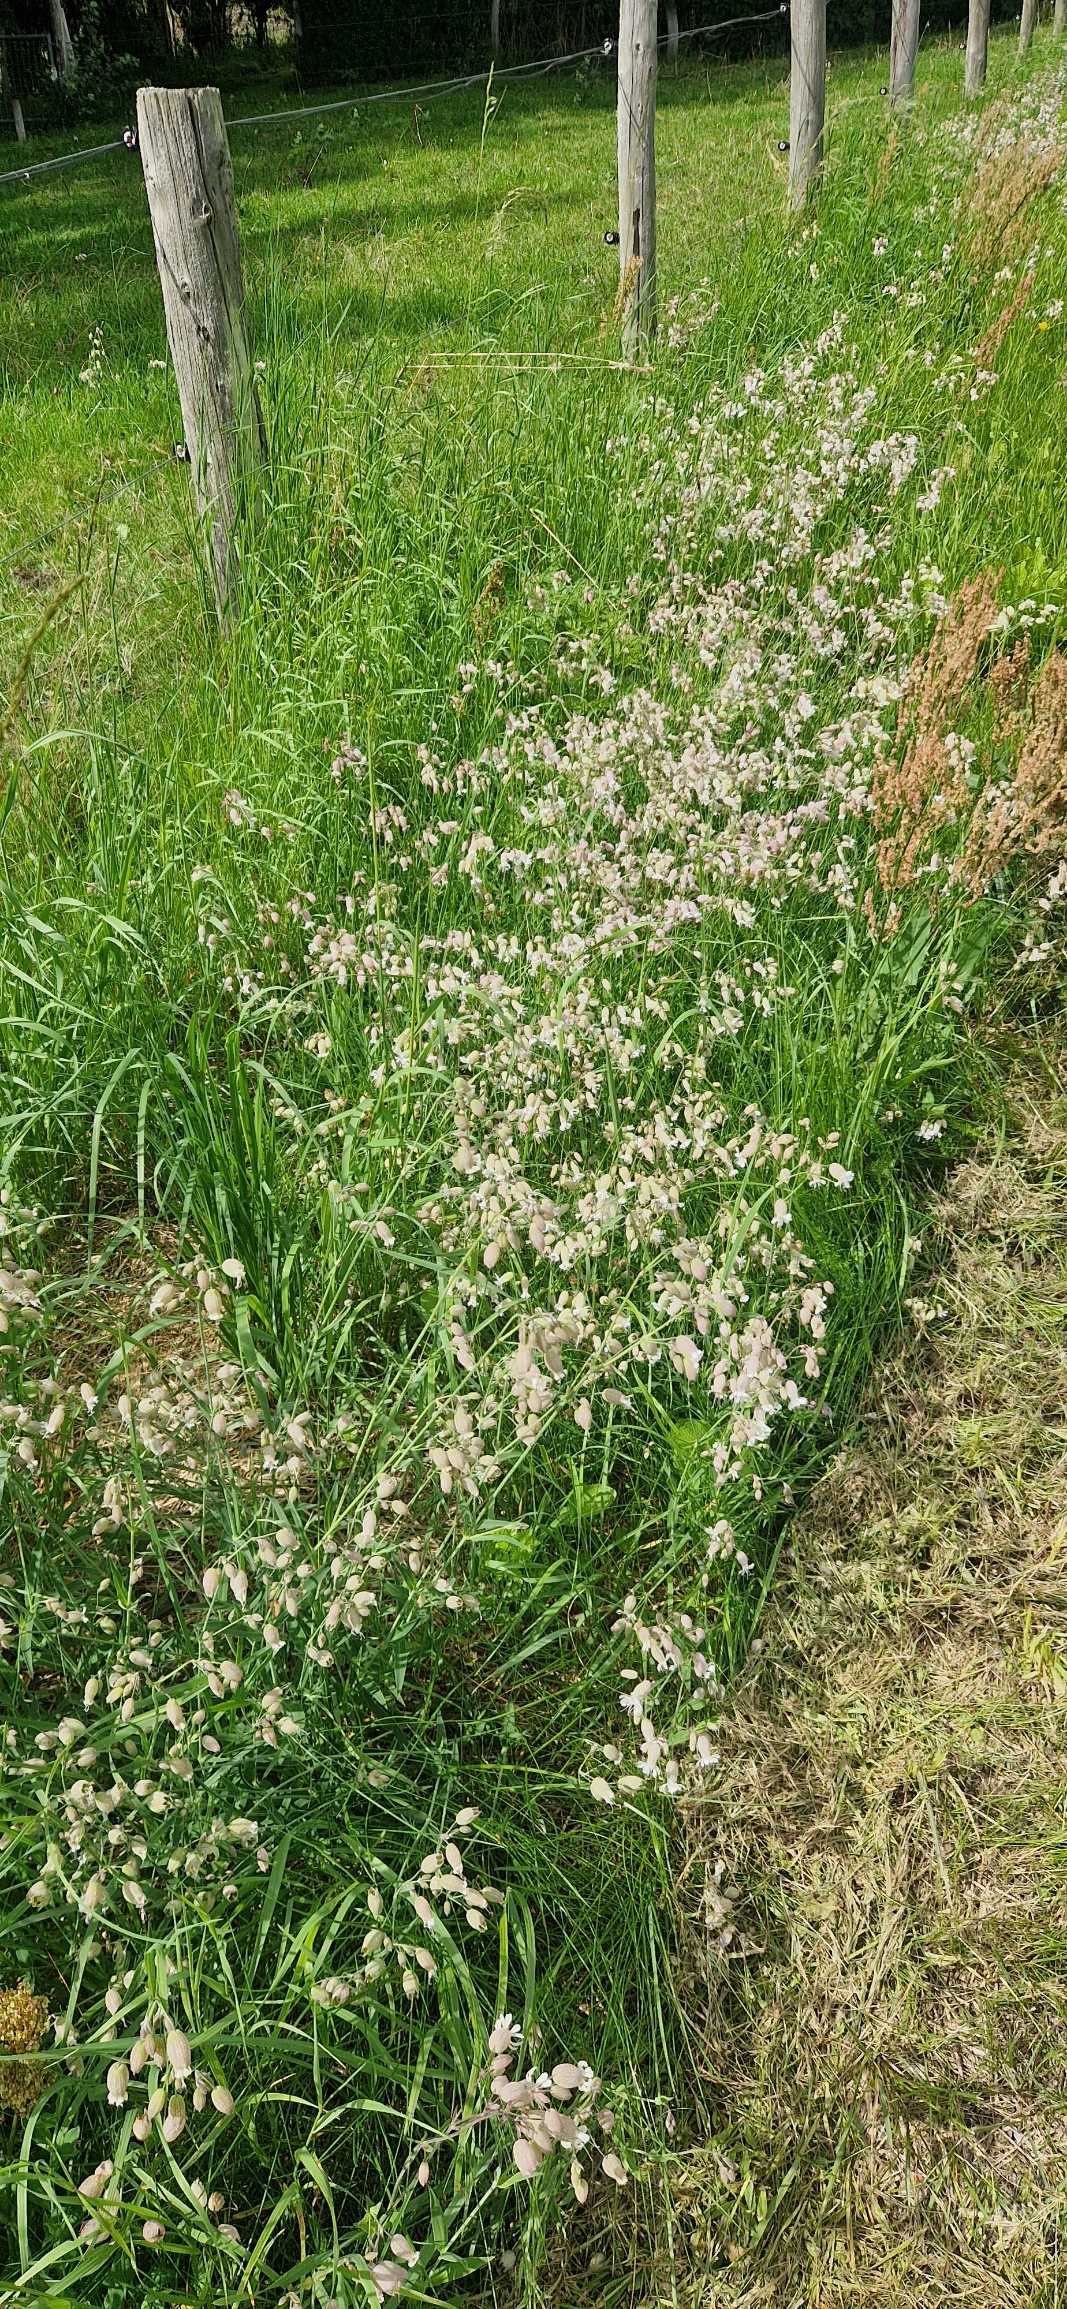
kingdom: Plantae
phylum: Tracheophyta
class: Magnoliopsida
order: Caryophyllales
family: Caryophyllaceae
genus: Silene
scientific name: Silene vulgaris
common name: Blæresmælde
